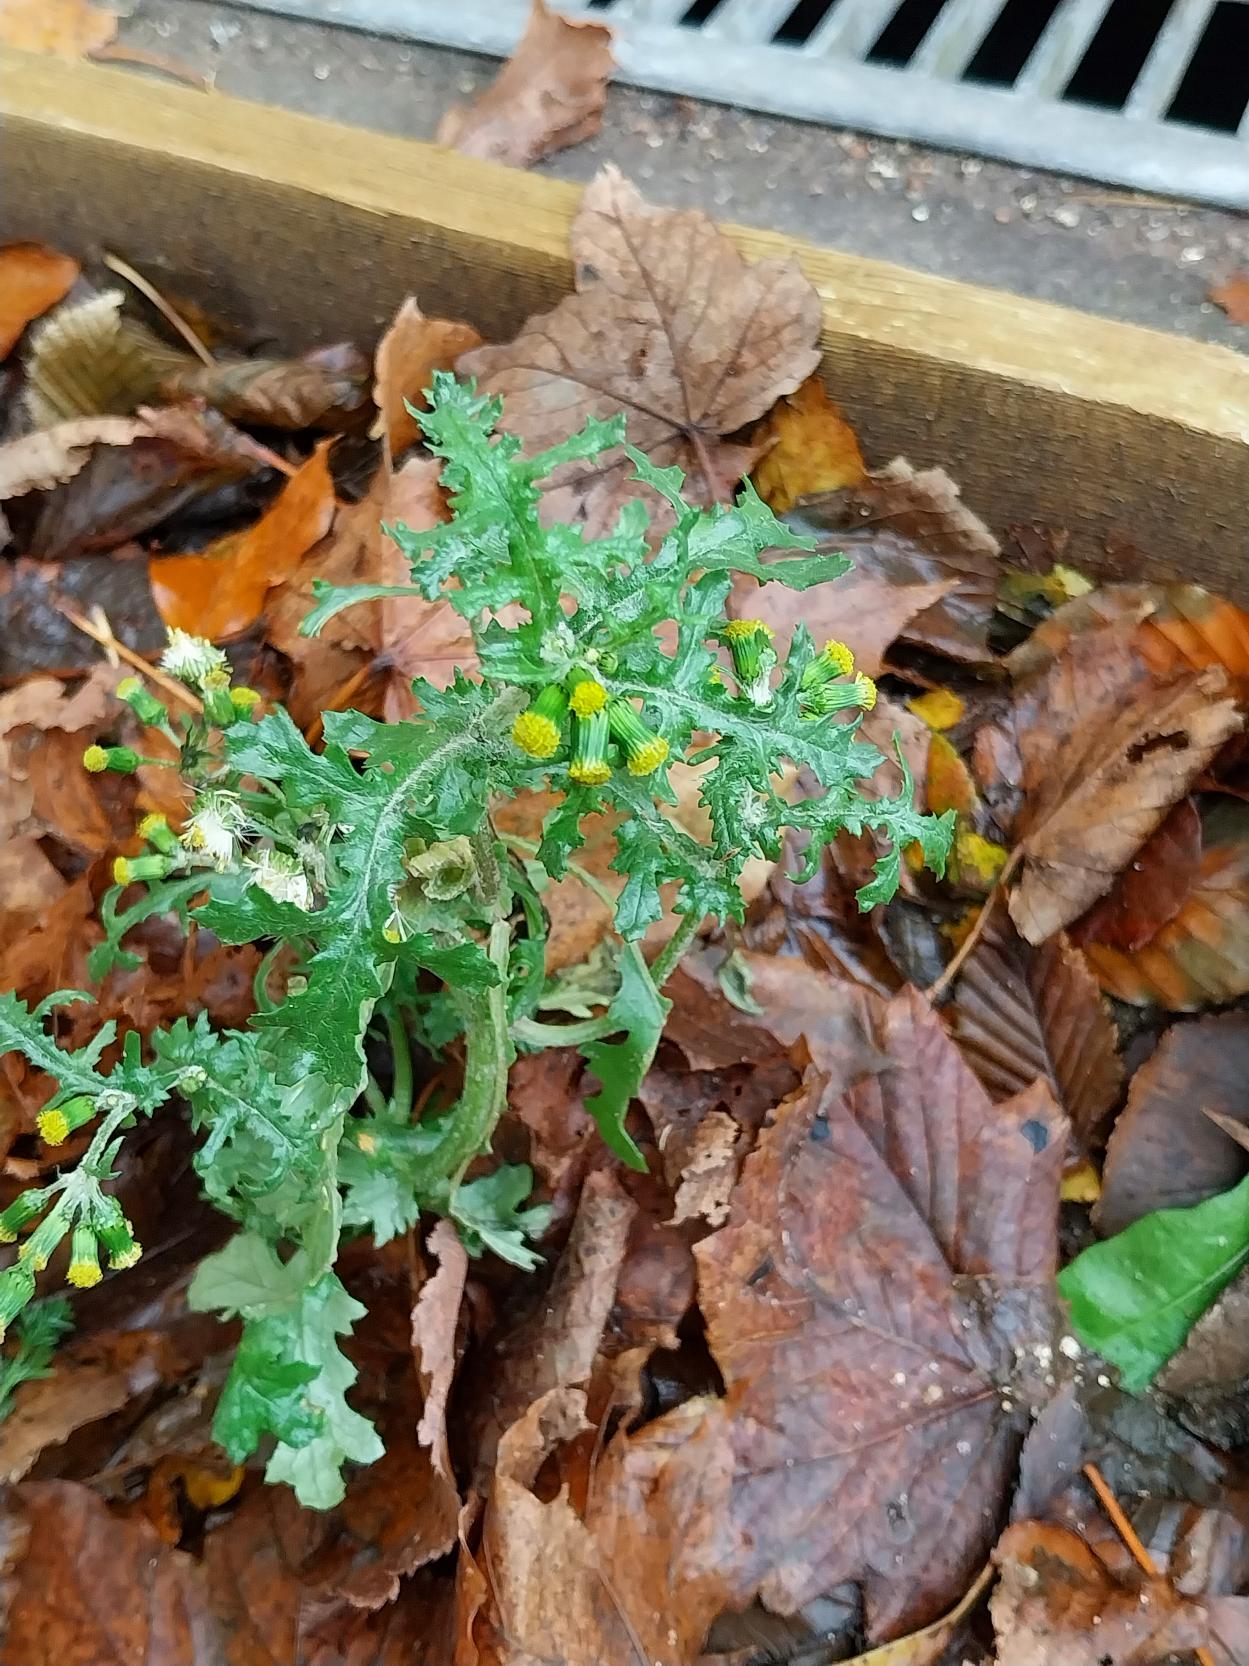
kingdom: Plantae
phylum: Tracheophyta
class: Magnoliopsida
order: Asterales
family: Asteraceae
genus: Senecio
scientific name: Senecio vulgaris
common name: Almindelig brandbæger
